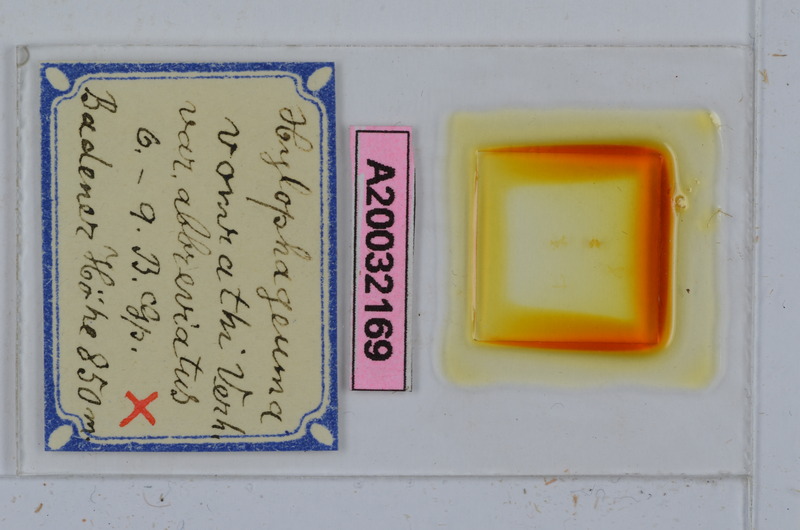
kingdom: Animalia
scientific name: Animalia
